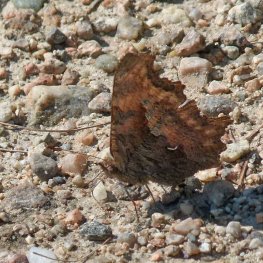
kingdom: Animalia
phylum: Arthropoda
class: Insecta
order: Lepidoptera
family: Nymphalidae
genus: Polygonia
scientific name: Polygonia gracilis
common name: Hoary Comma
